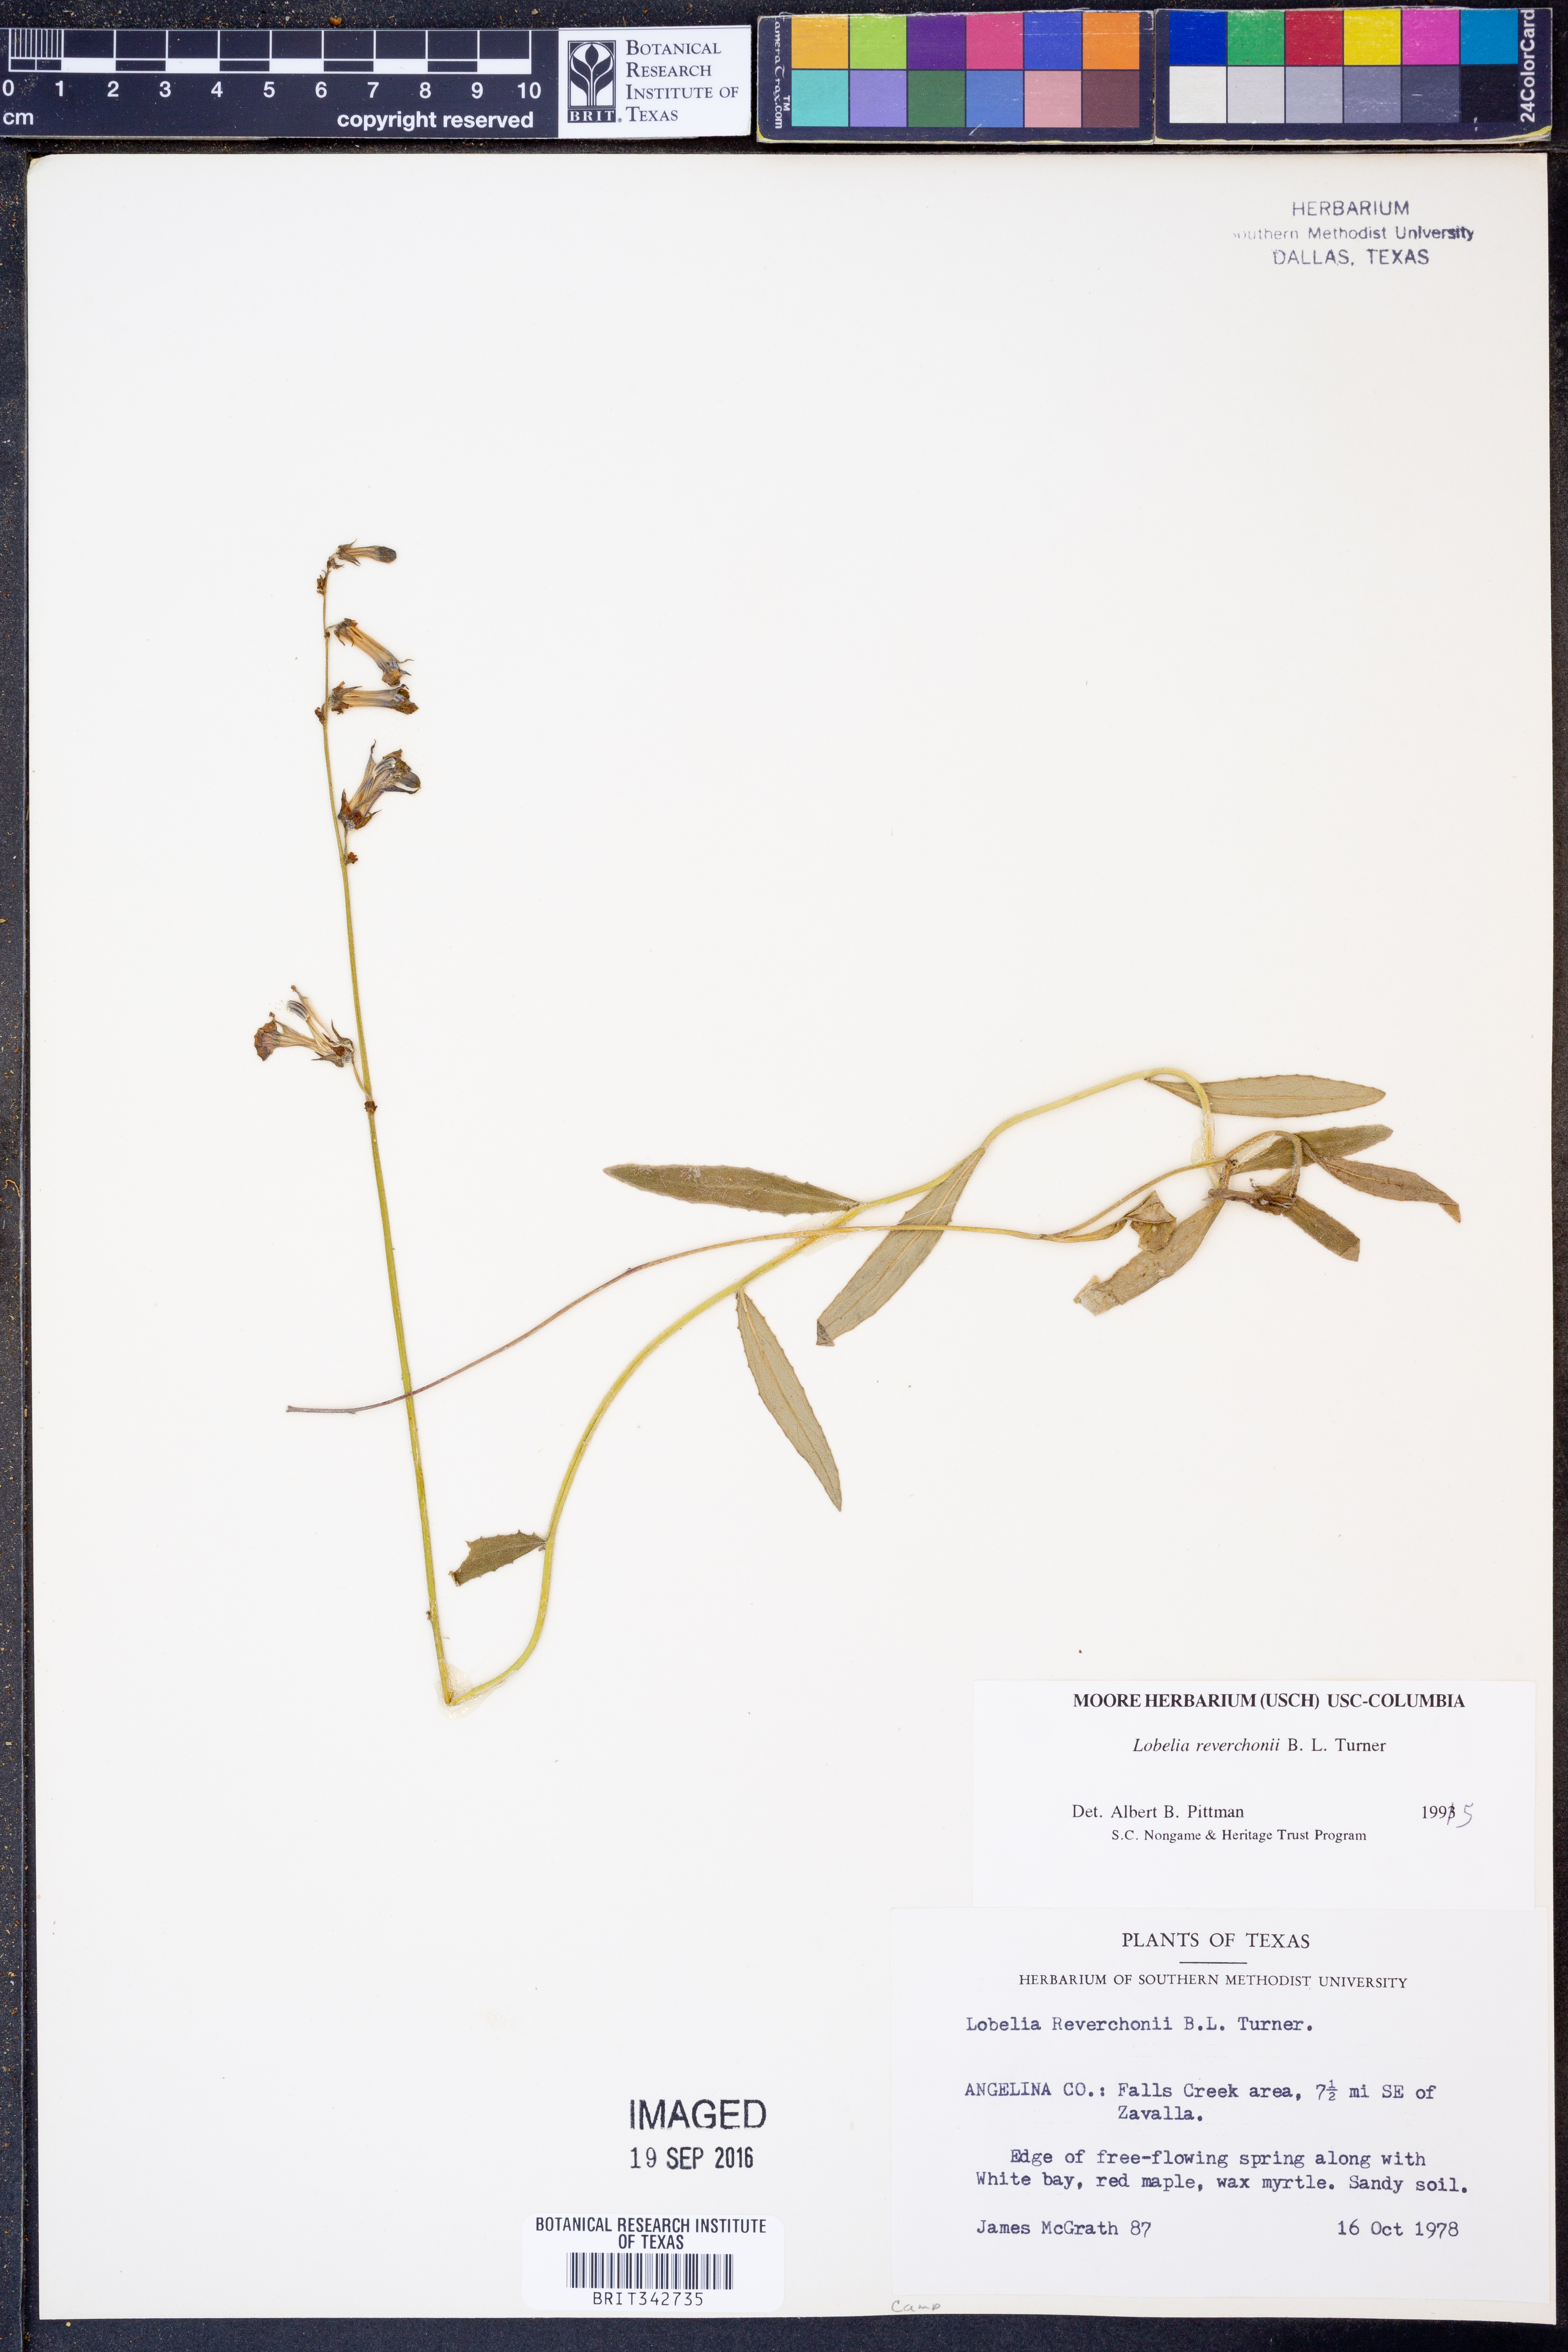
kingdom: Plantae
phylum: Tracheophyta
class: Magnoliopsida
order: Asterales
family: Campanulaceae
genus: Lobelia
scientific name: Lobelia reverchonii
